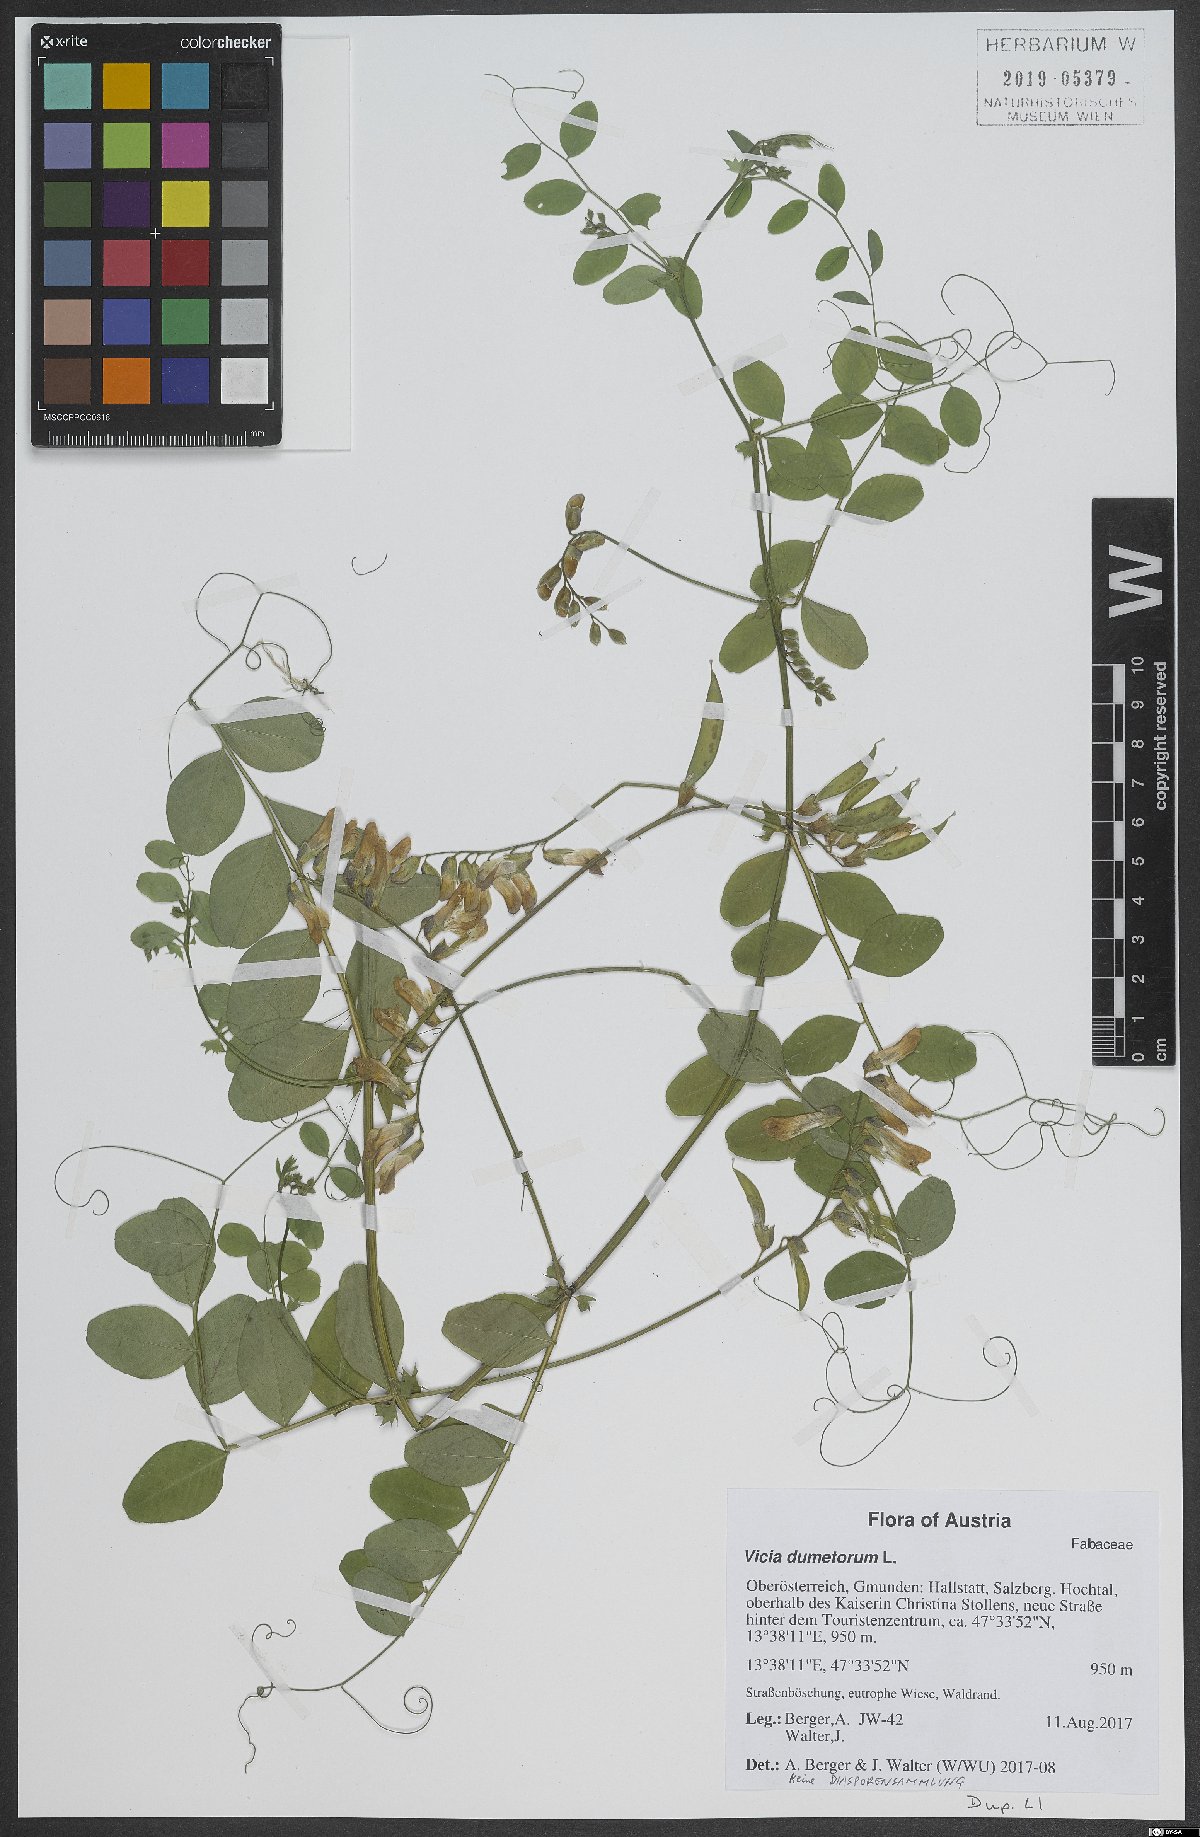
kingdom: Plantae
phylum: Tracheophyta
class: Magnoliopsida
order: Fabales
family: Fabaceae
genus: Vicia
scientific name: Vicia dumetorum
